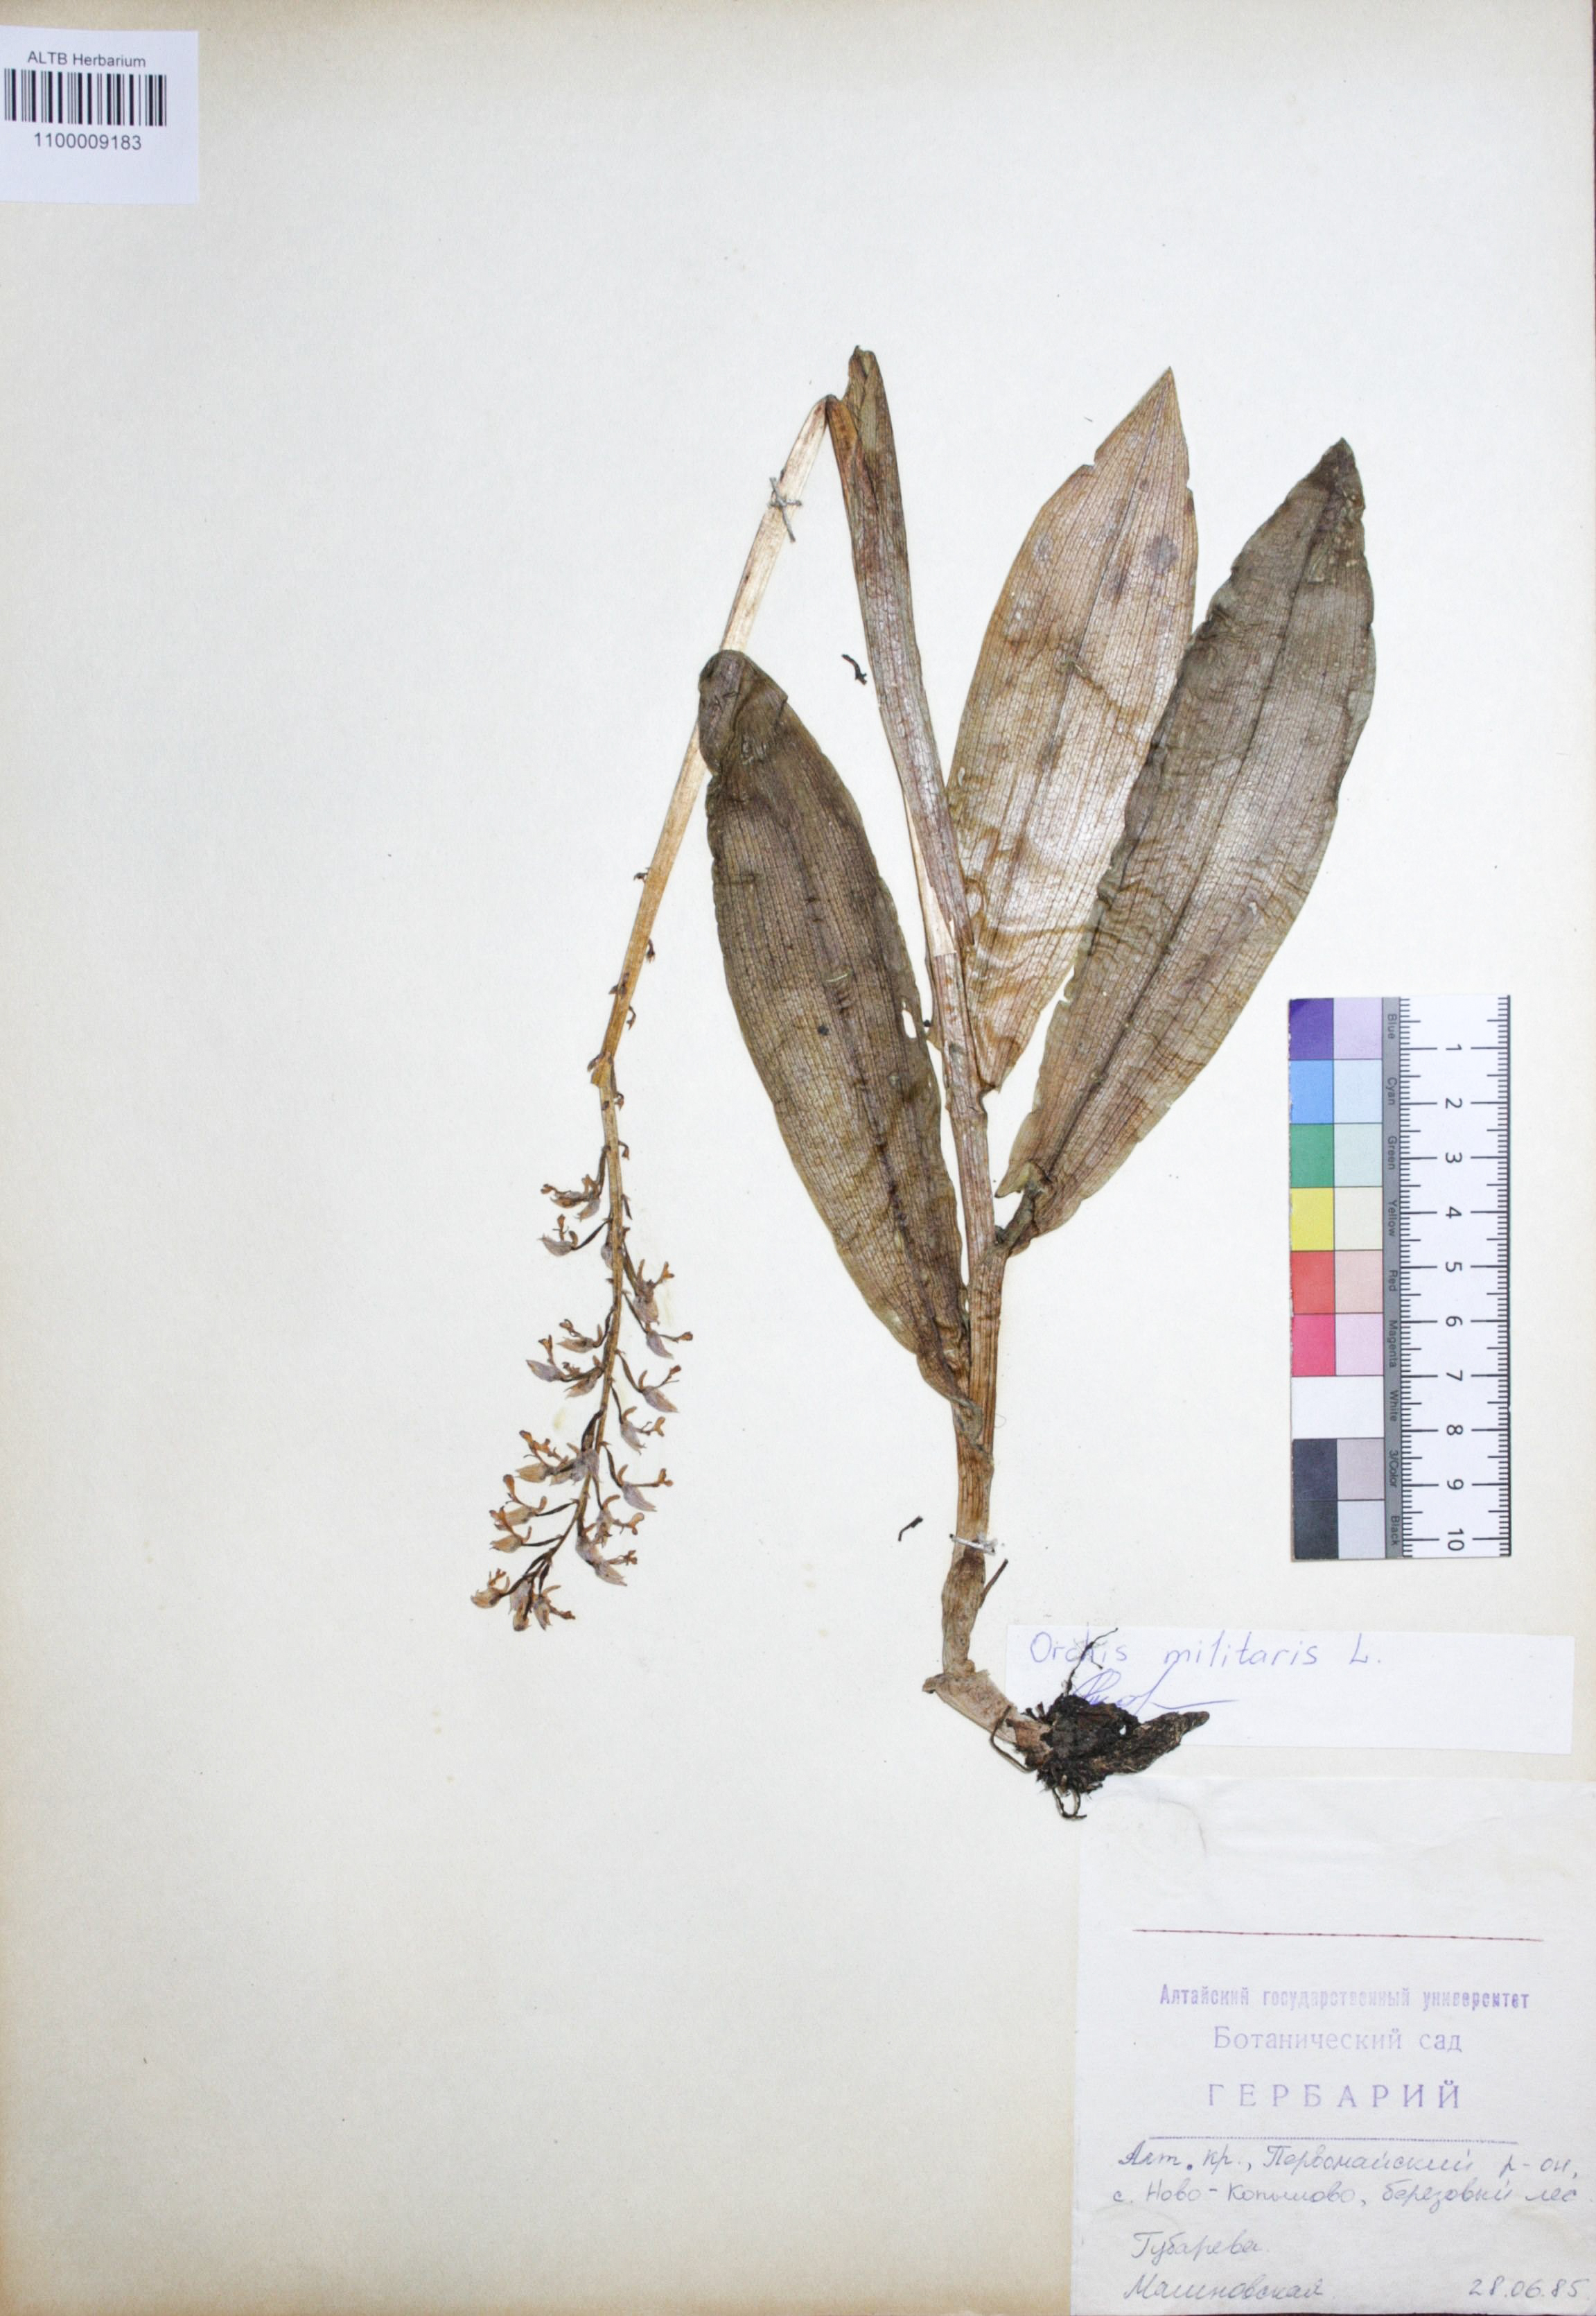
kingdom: Plantae
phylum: Tracheophyta
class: Liliopsida
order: Asparagales
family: Orchidaceae
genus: Orchis
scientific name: Orchis militaris
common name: Military orchid
